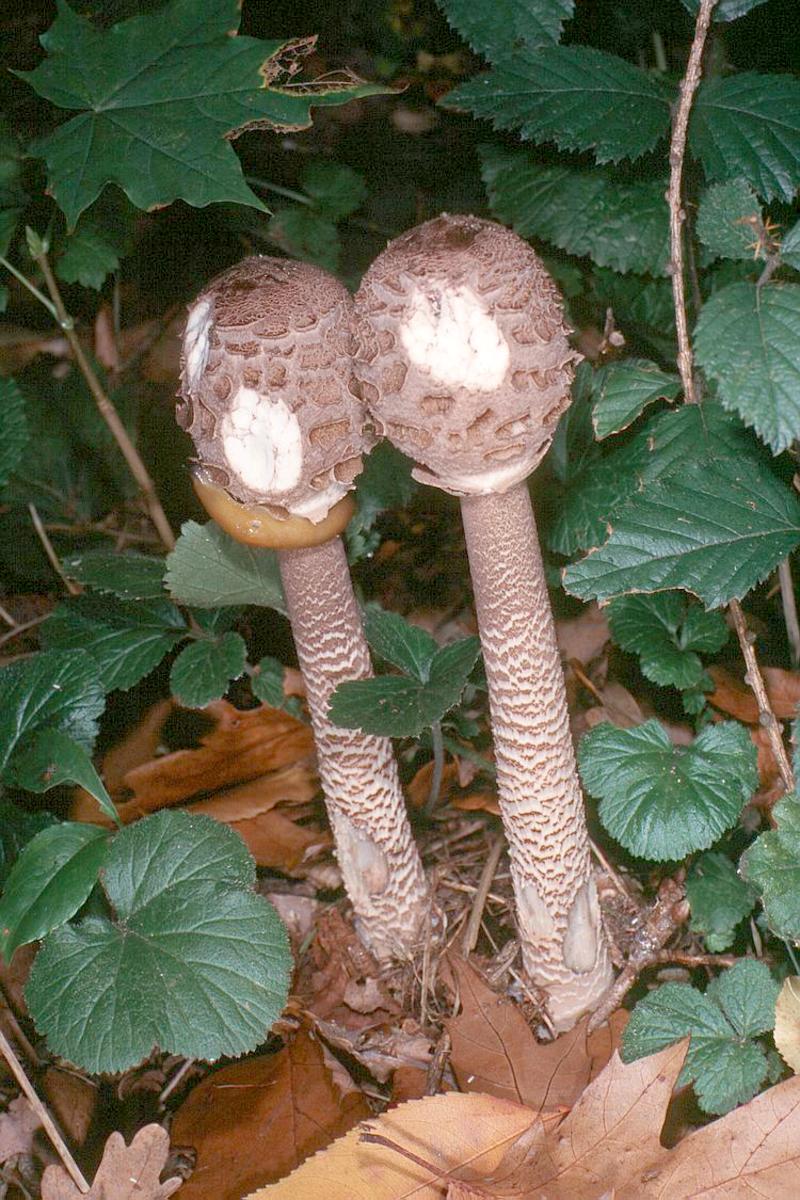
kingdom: Fungi
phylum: Basidiomycota
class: Agaricomycetes
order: Agaricales
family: Agaricaceae
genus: Macrolepiota
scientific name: Macrolepiota procera
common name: Parasol
